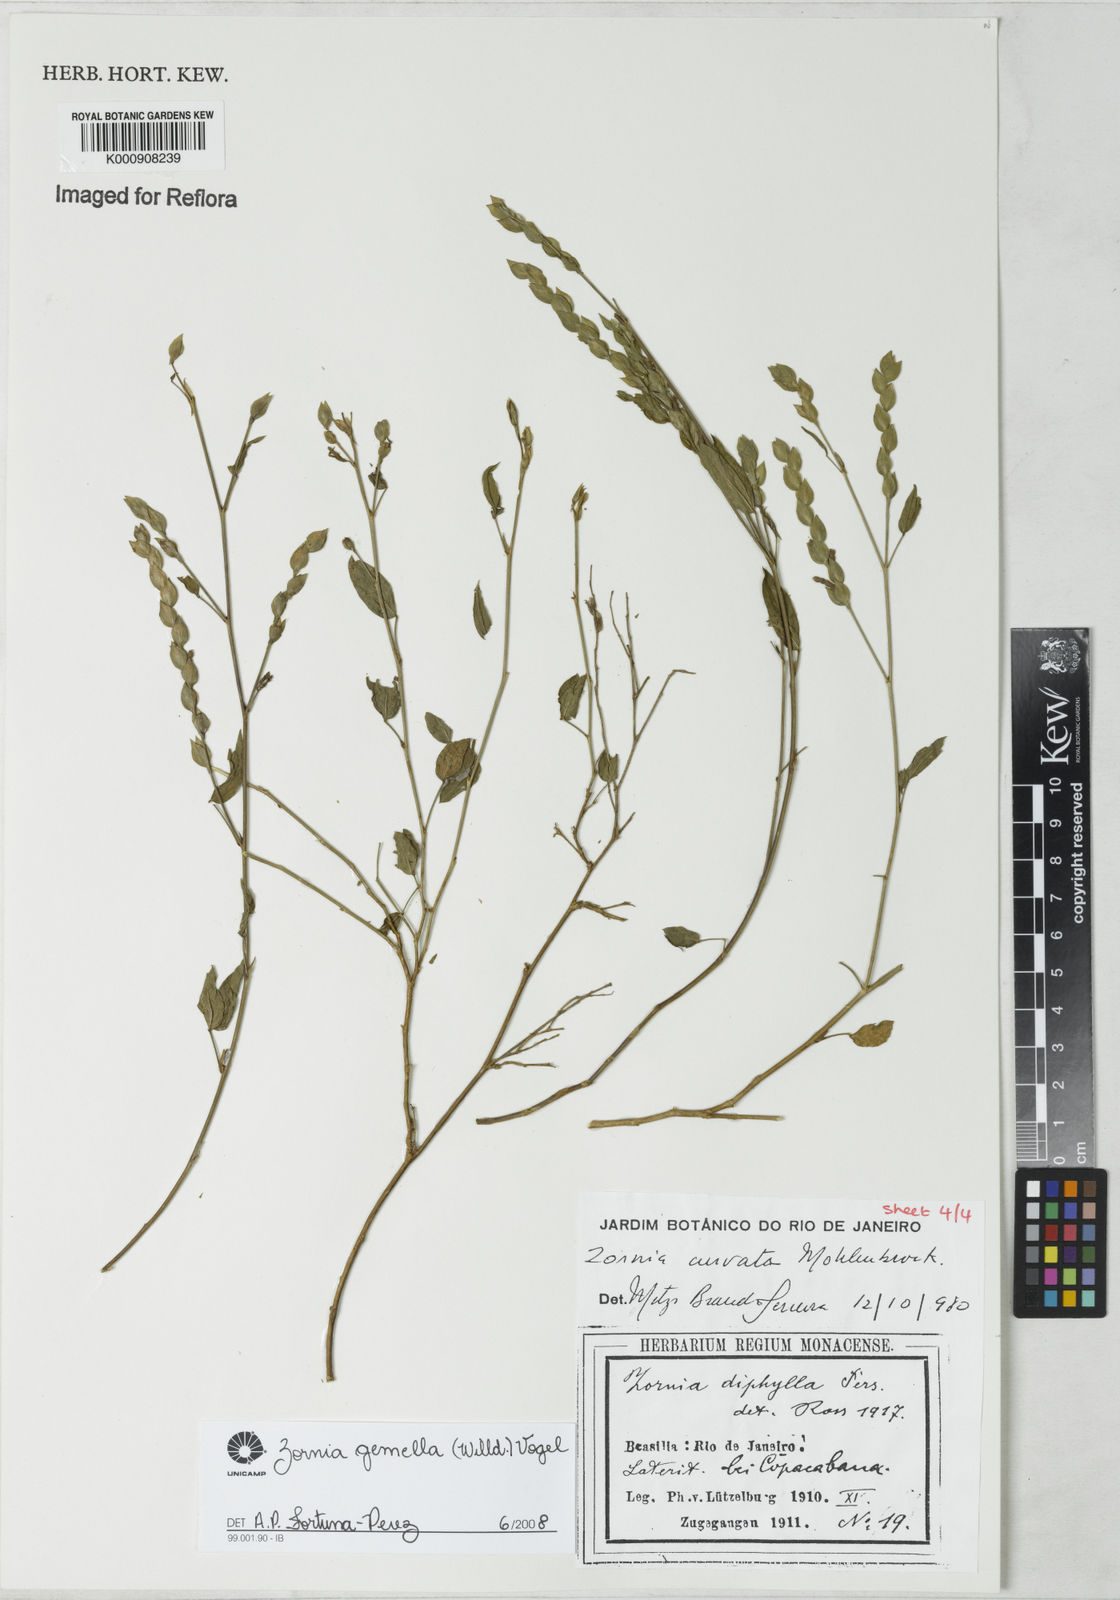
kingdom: Plantae
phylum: Tracheophyta
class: Magnoliopsida
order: Fabales
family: Fabaceae
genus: Zornia
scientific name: Zornia latifolia
